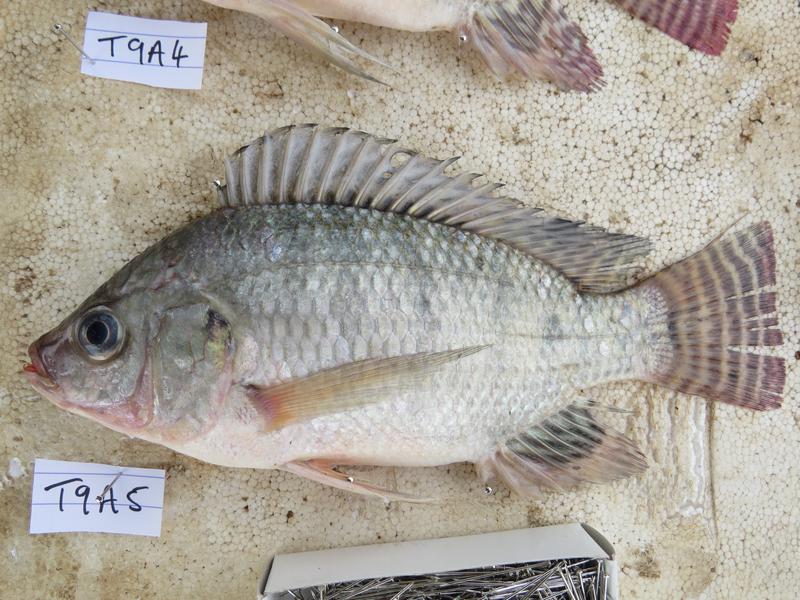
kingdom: Animalia
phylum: Chordata
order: Perciformes
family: Cichlidae
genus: Oreochromis
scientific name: Oreochromis niloticus
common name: Nile tilapia
